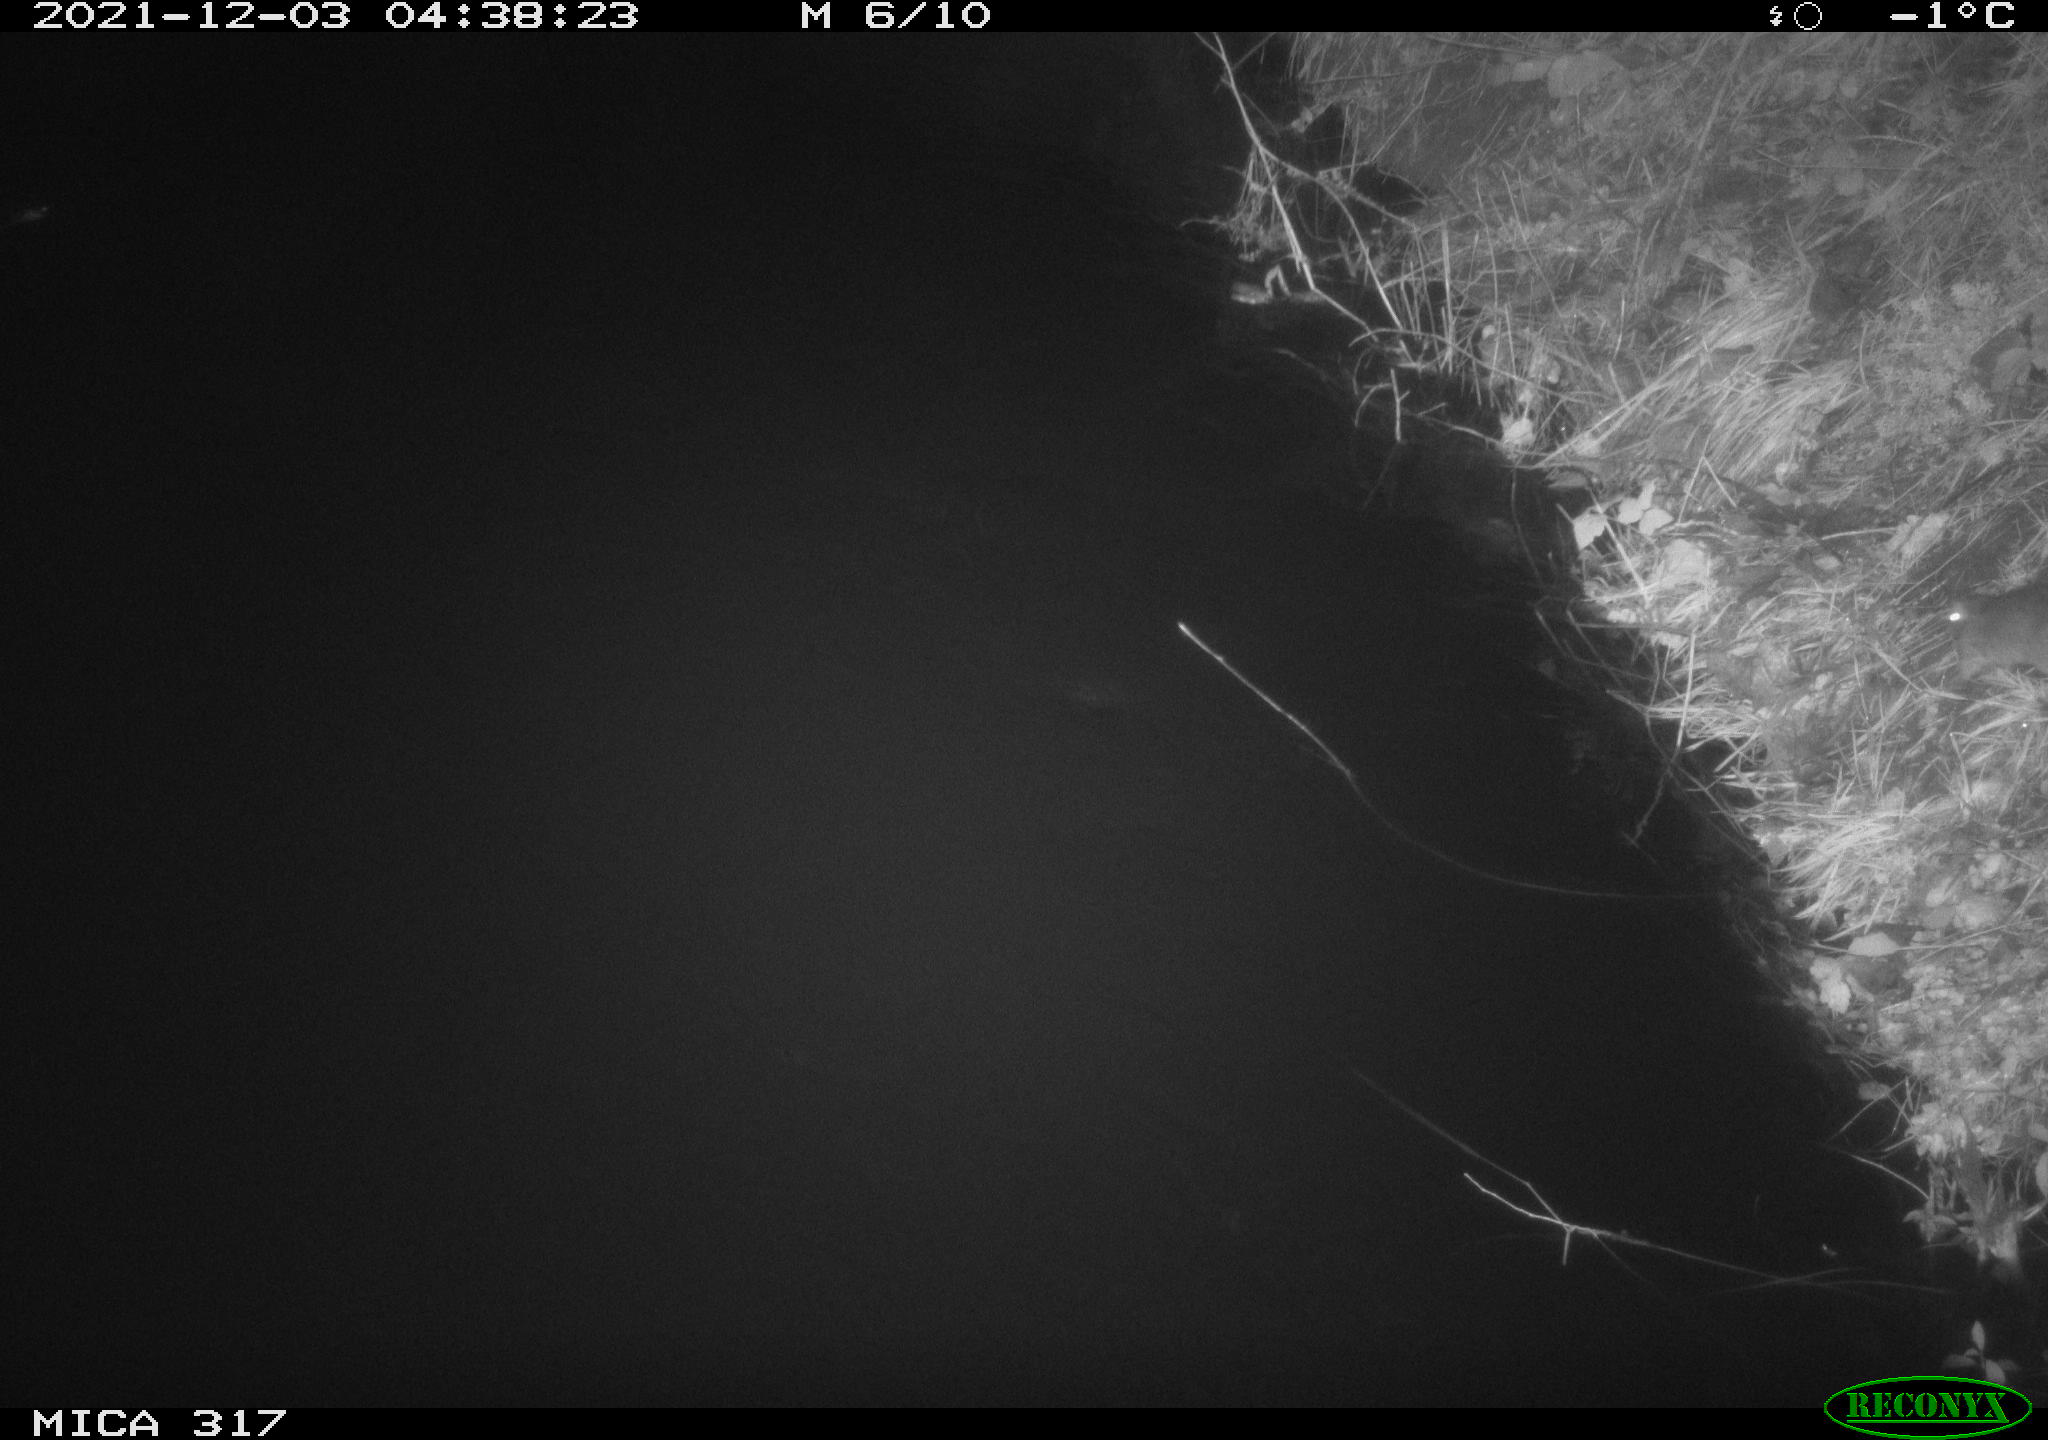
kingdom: Animalia
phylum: Chordata
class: Mammalia
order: Rodentia
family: Muridae
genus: Rattus
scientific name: Rattus norvegicus
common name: Brown rat
